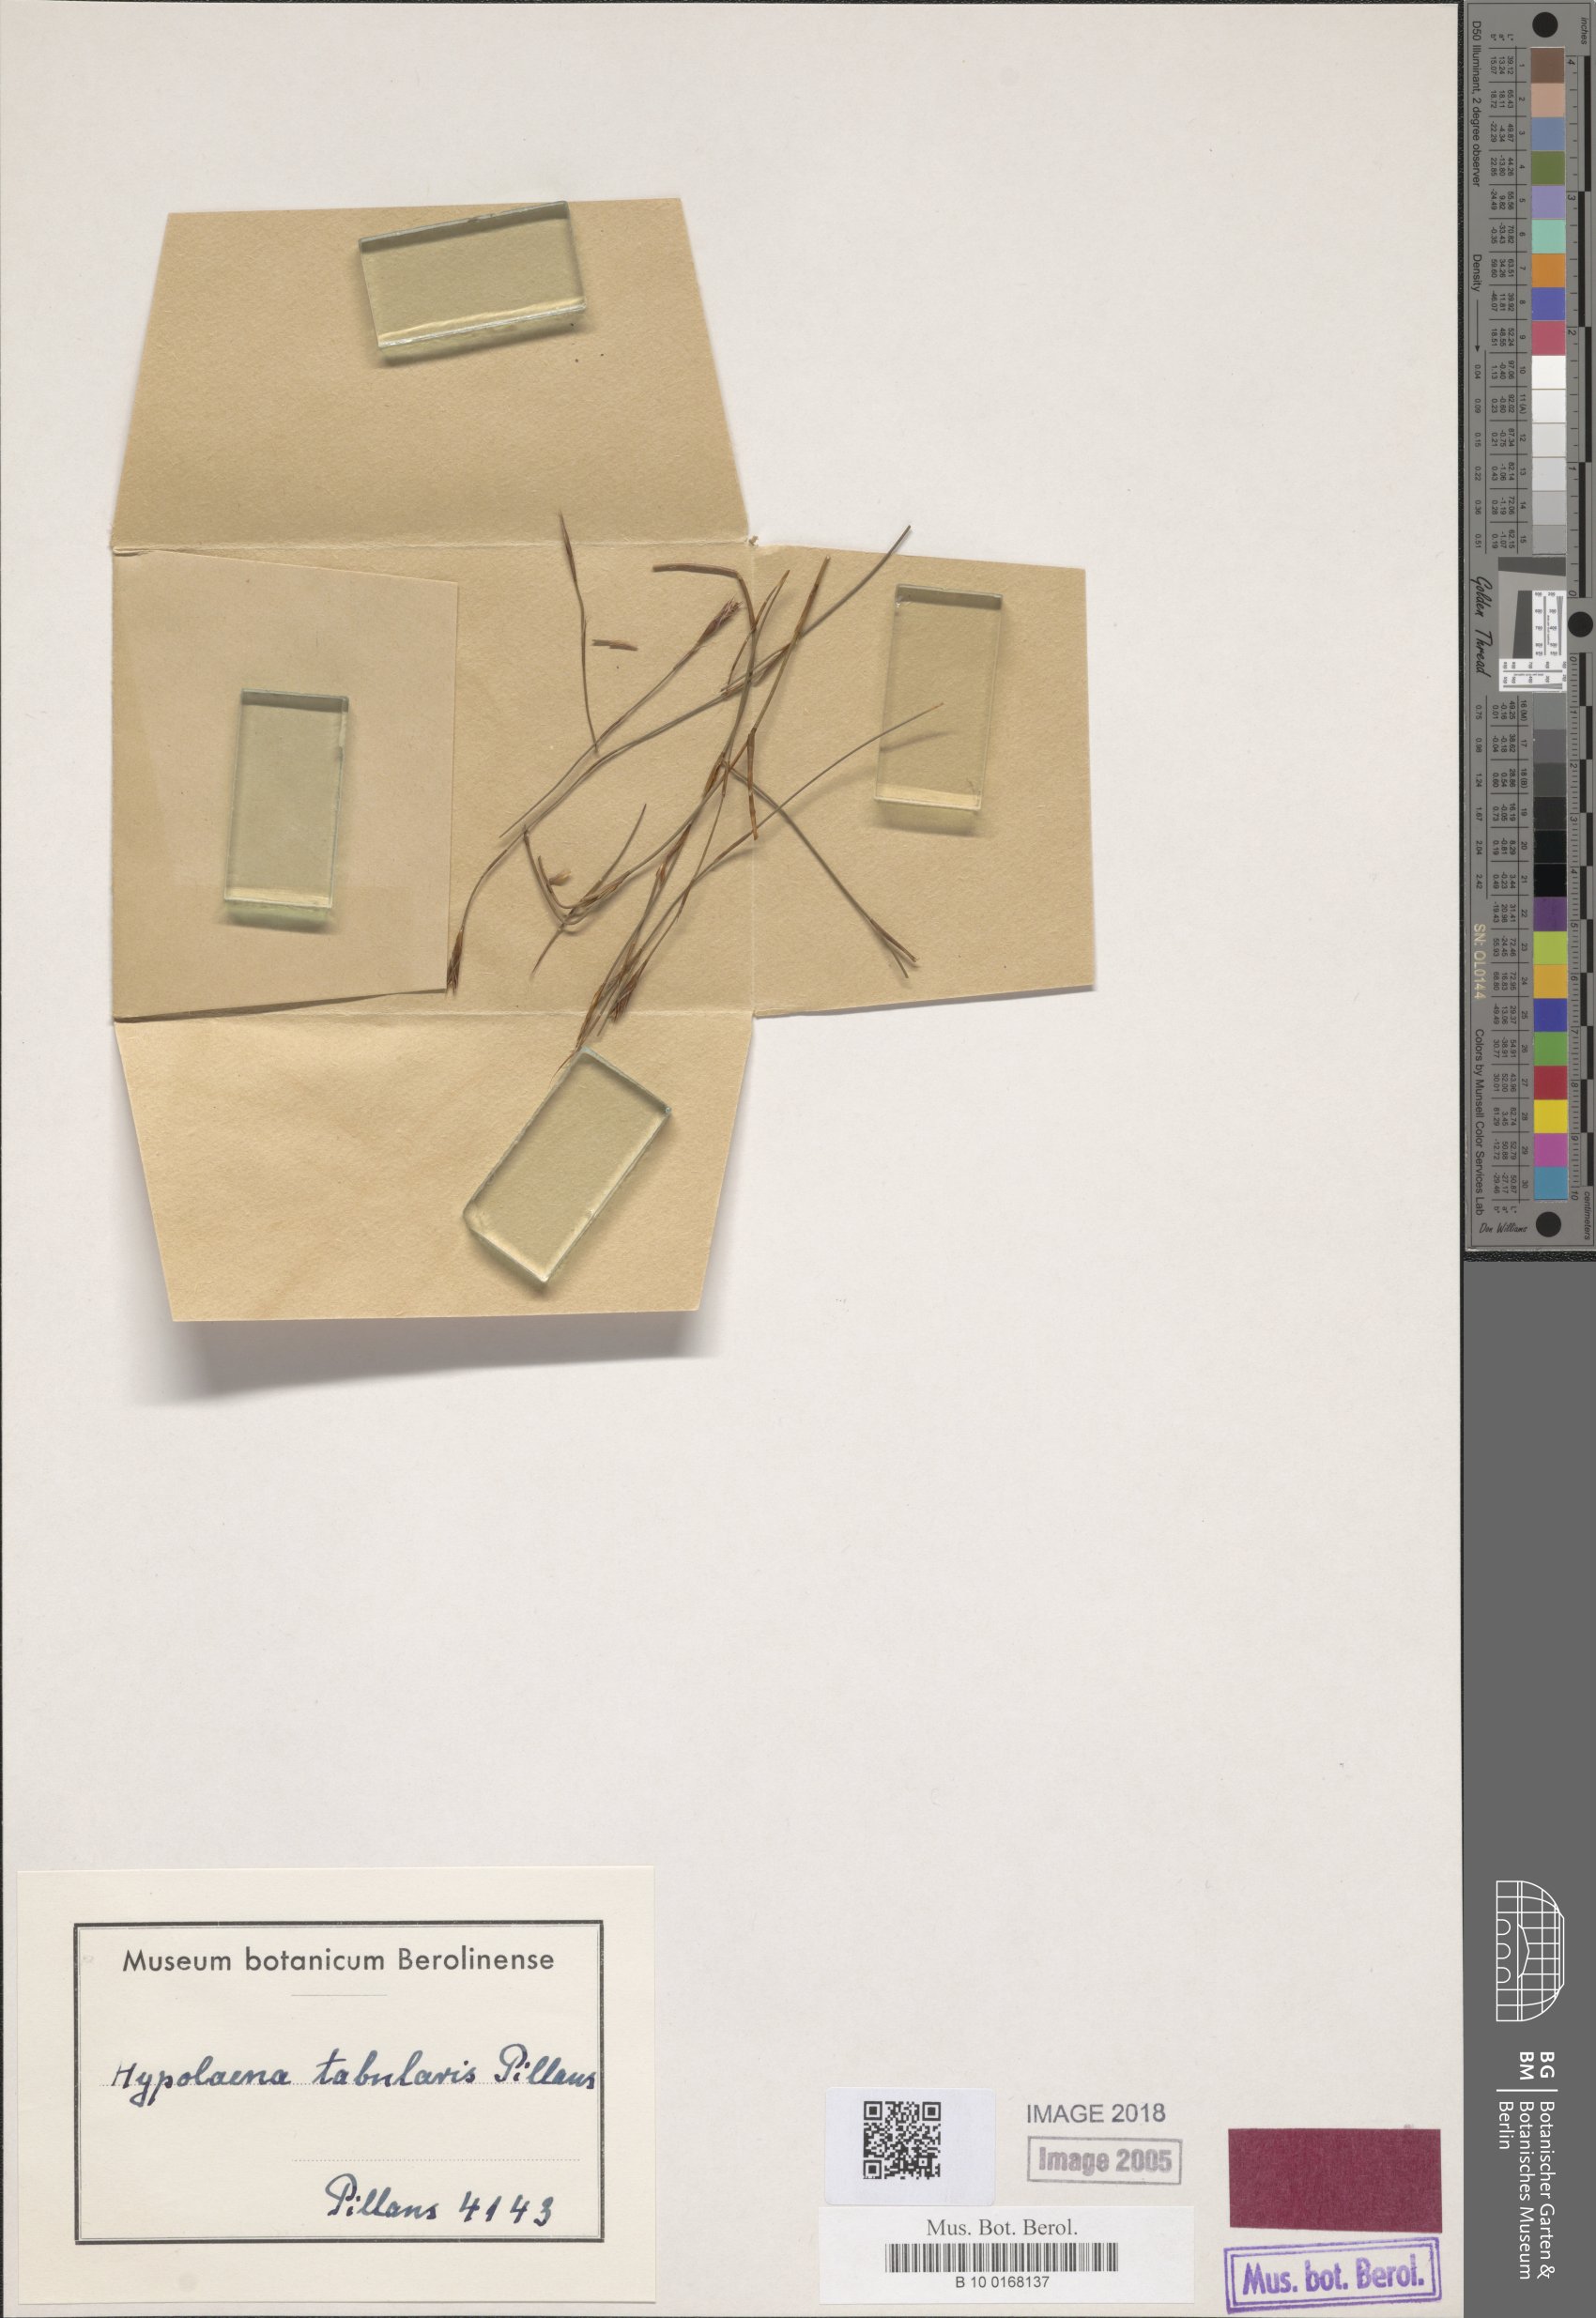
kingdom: Plantae
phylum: Tracheophyta
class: Liliopsida
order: Poales
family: Restionaceae
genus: Anthochortus
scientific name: Anthochortus crinalis
